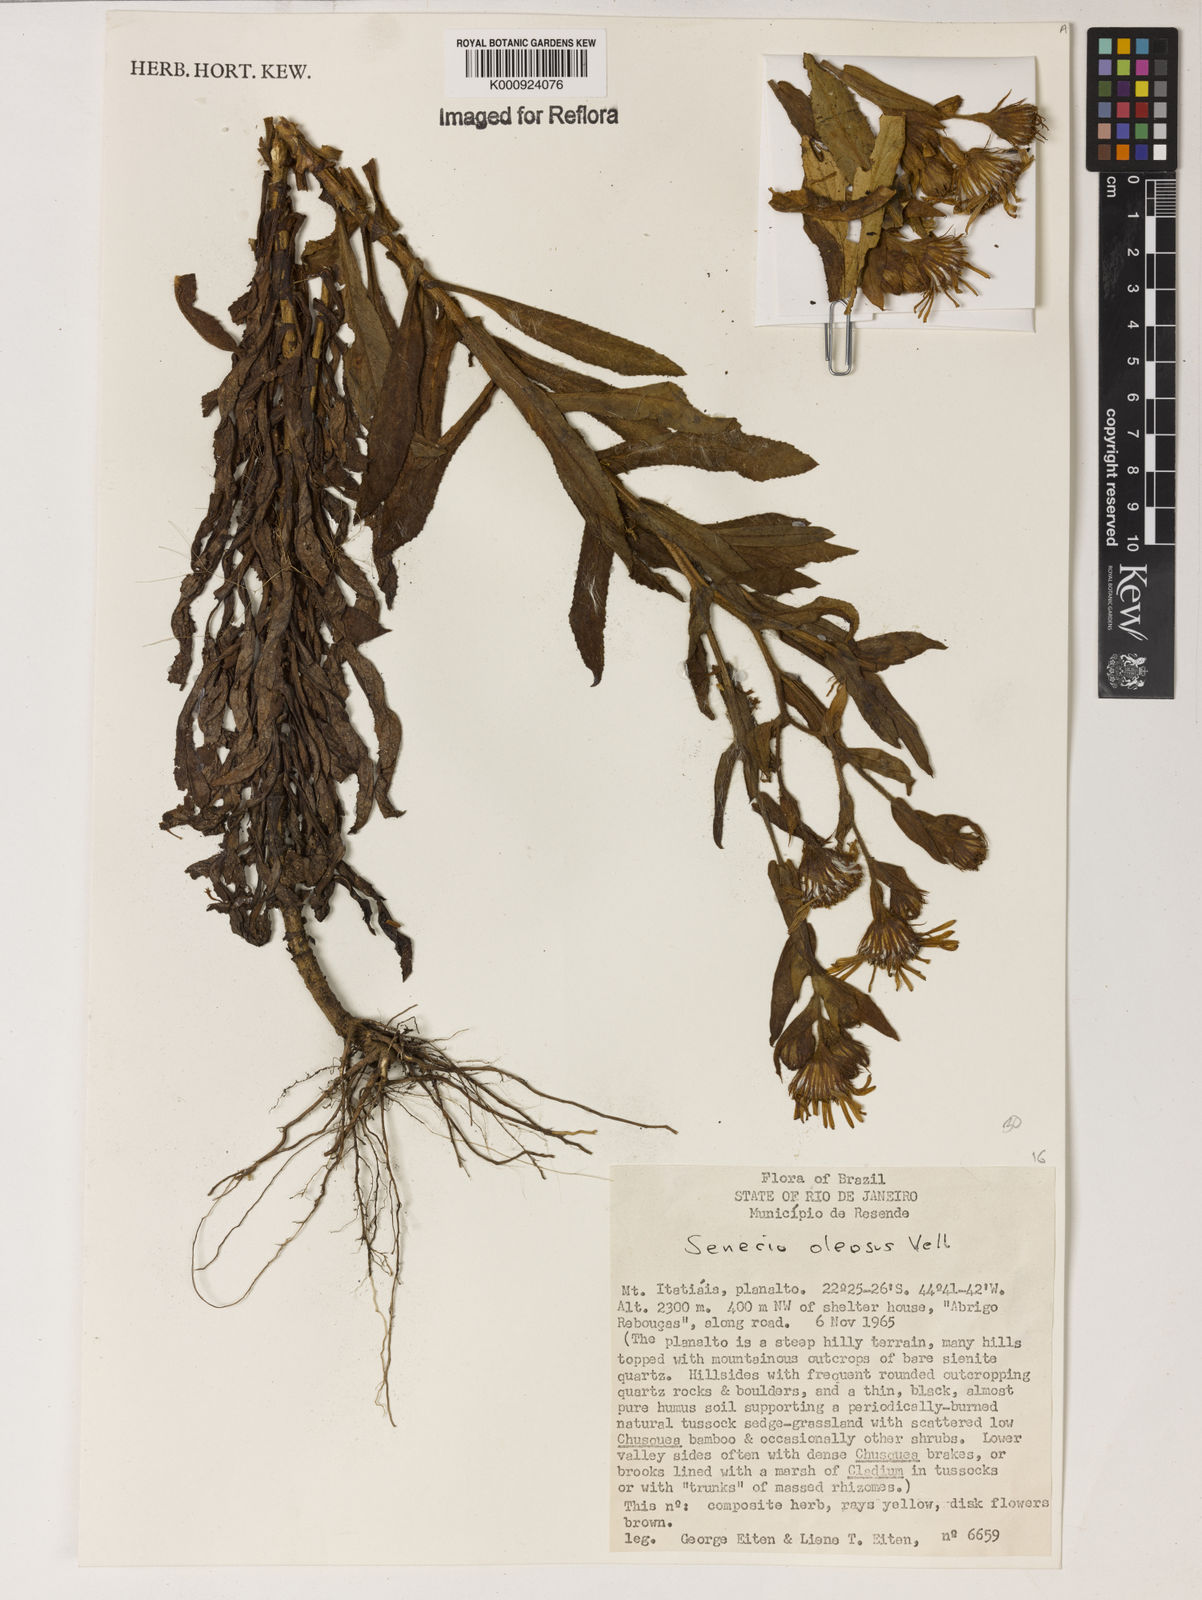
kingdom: Plantae
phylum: Tracheophyta
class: Magnoliopsida
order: Asterales
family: Asteraceae
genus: Senecio
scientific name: Senecio oleosus
